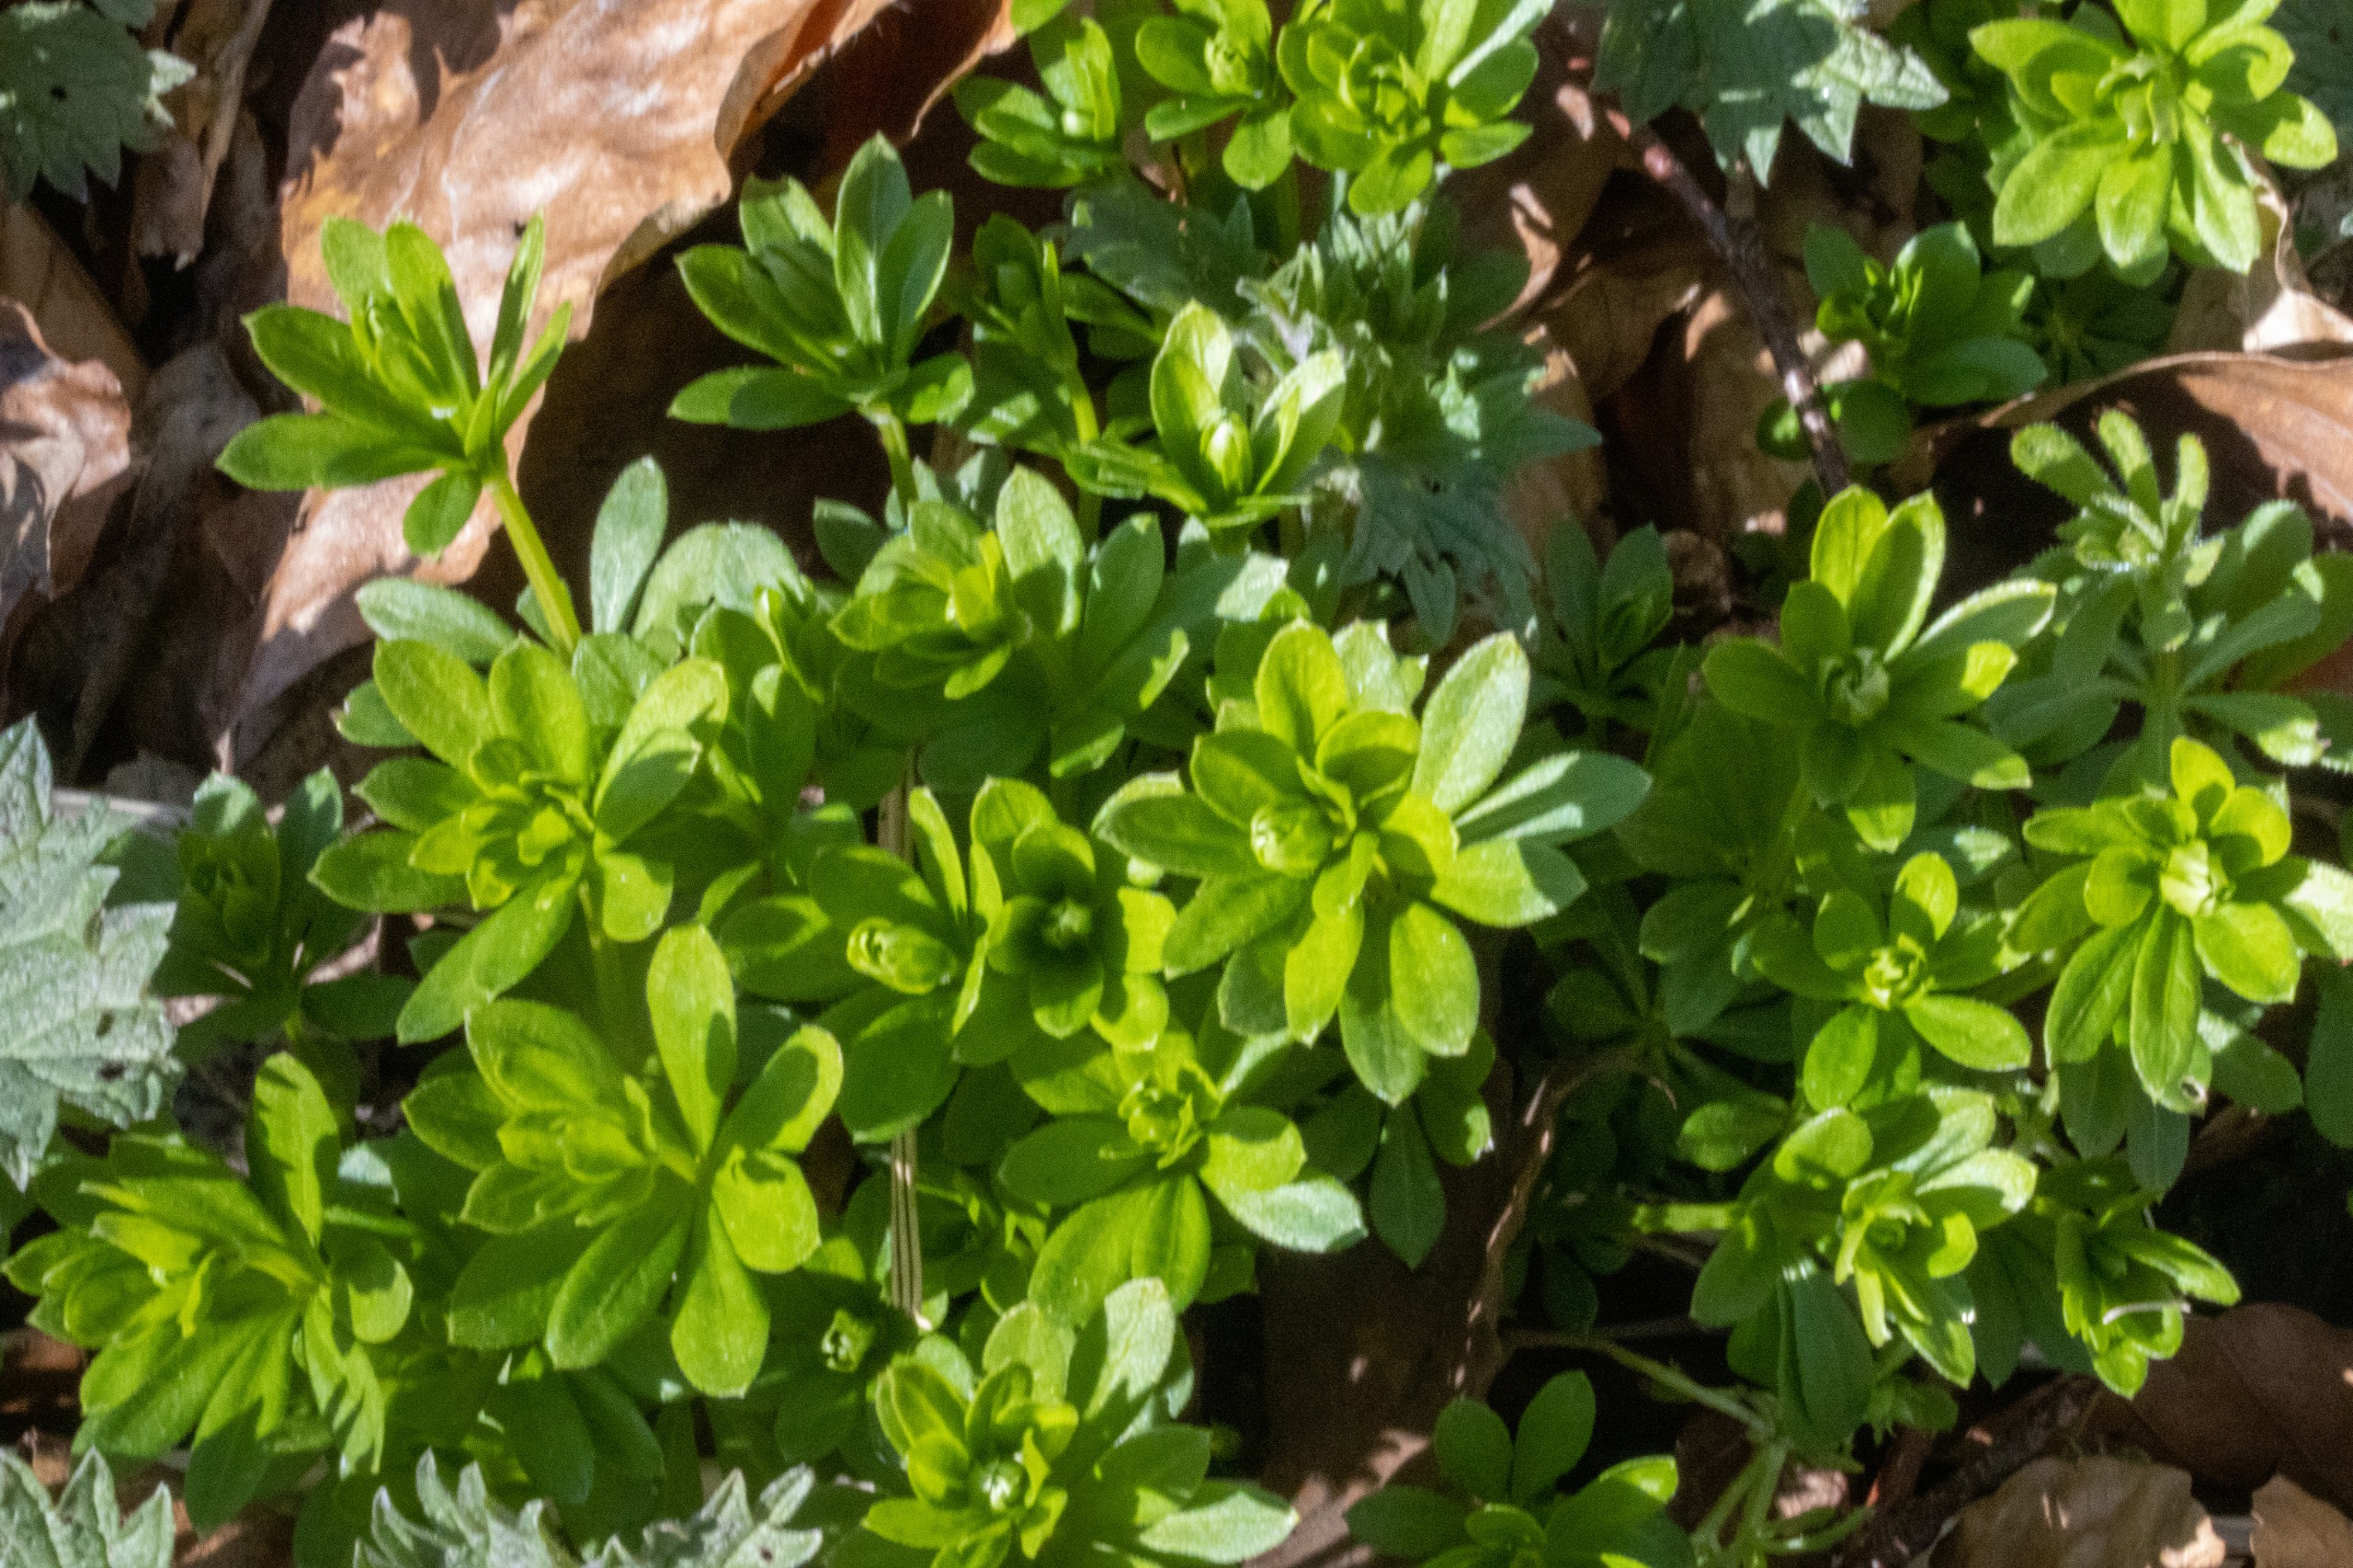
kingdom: Plantae
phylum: Tracheophyta
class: Magnoliopsida
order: Gentianales
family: Rubiaceae
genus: Galium
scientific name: Galium odoratum
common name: Skovmærke
